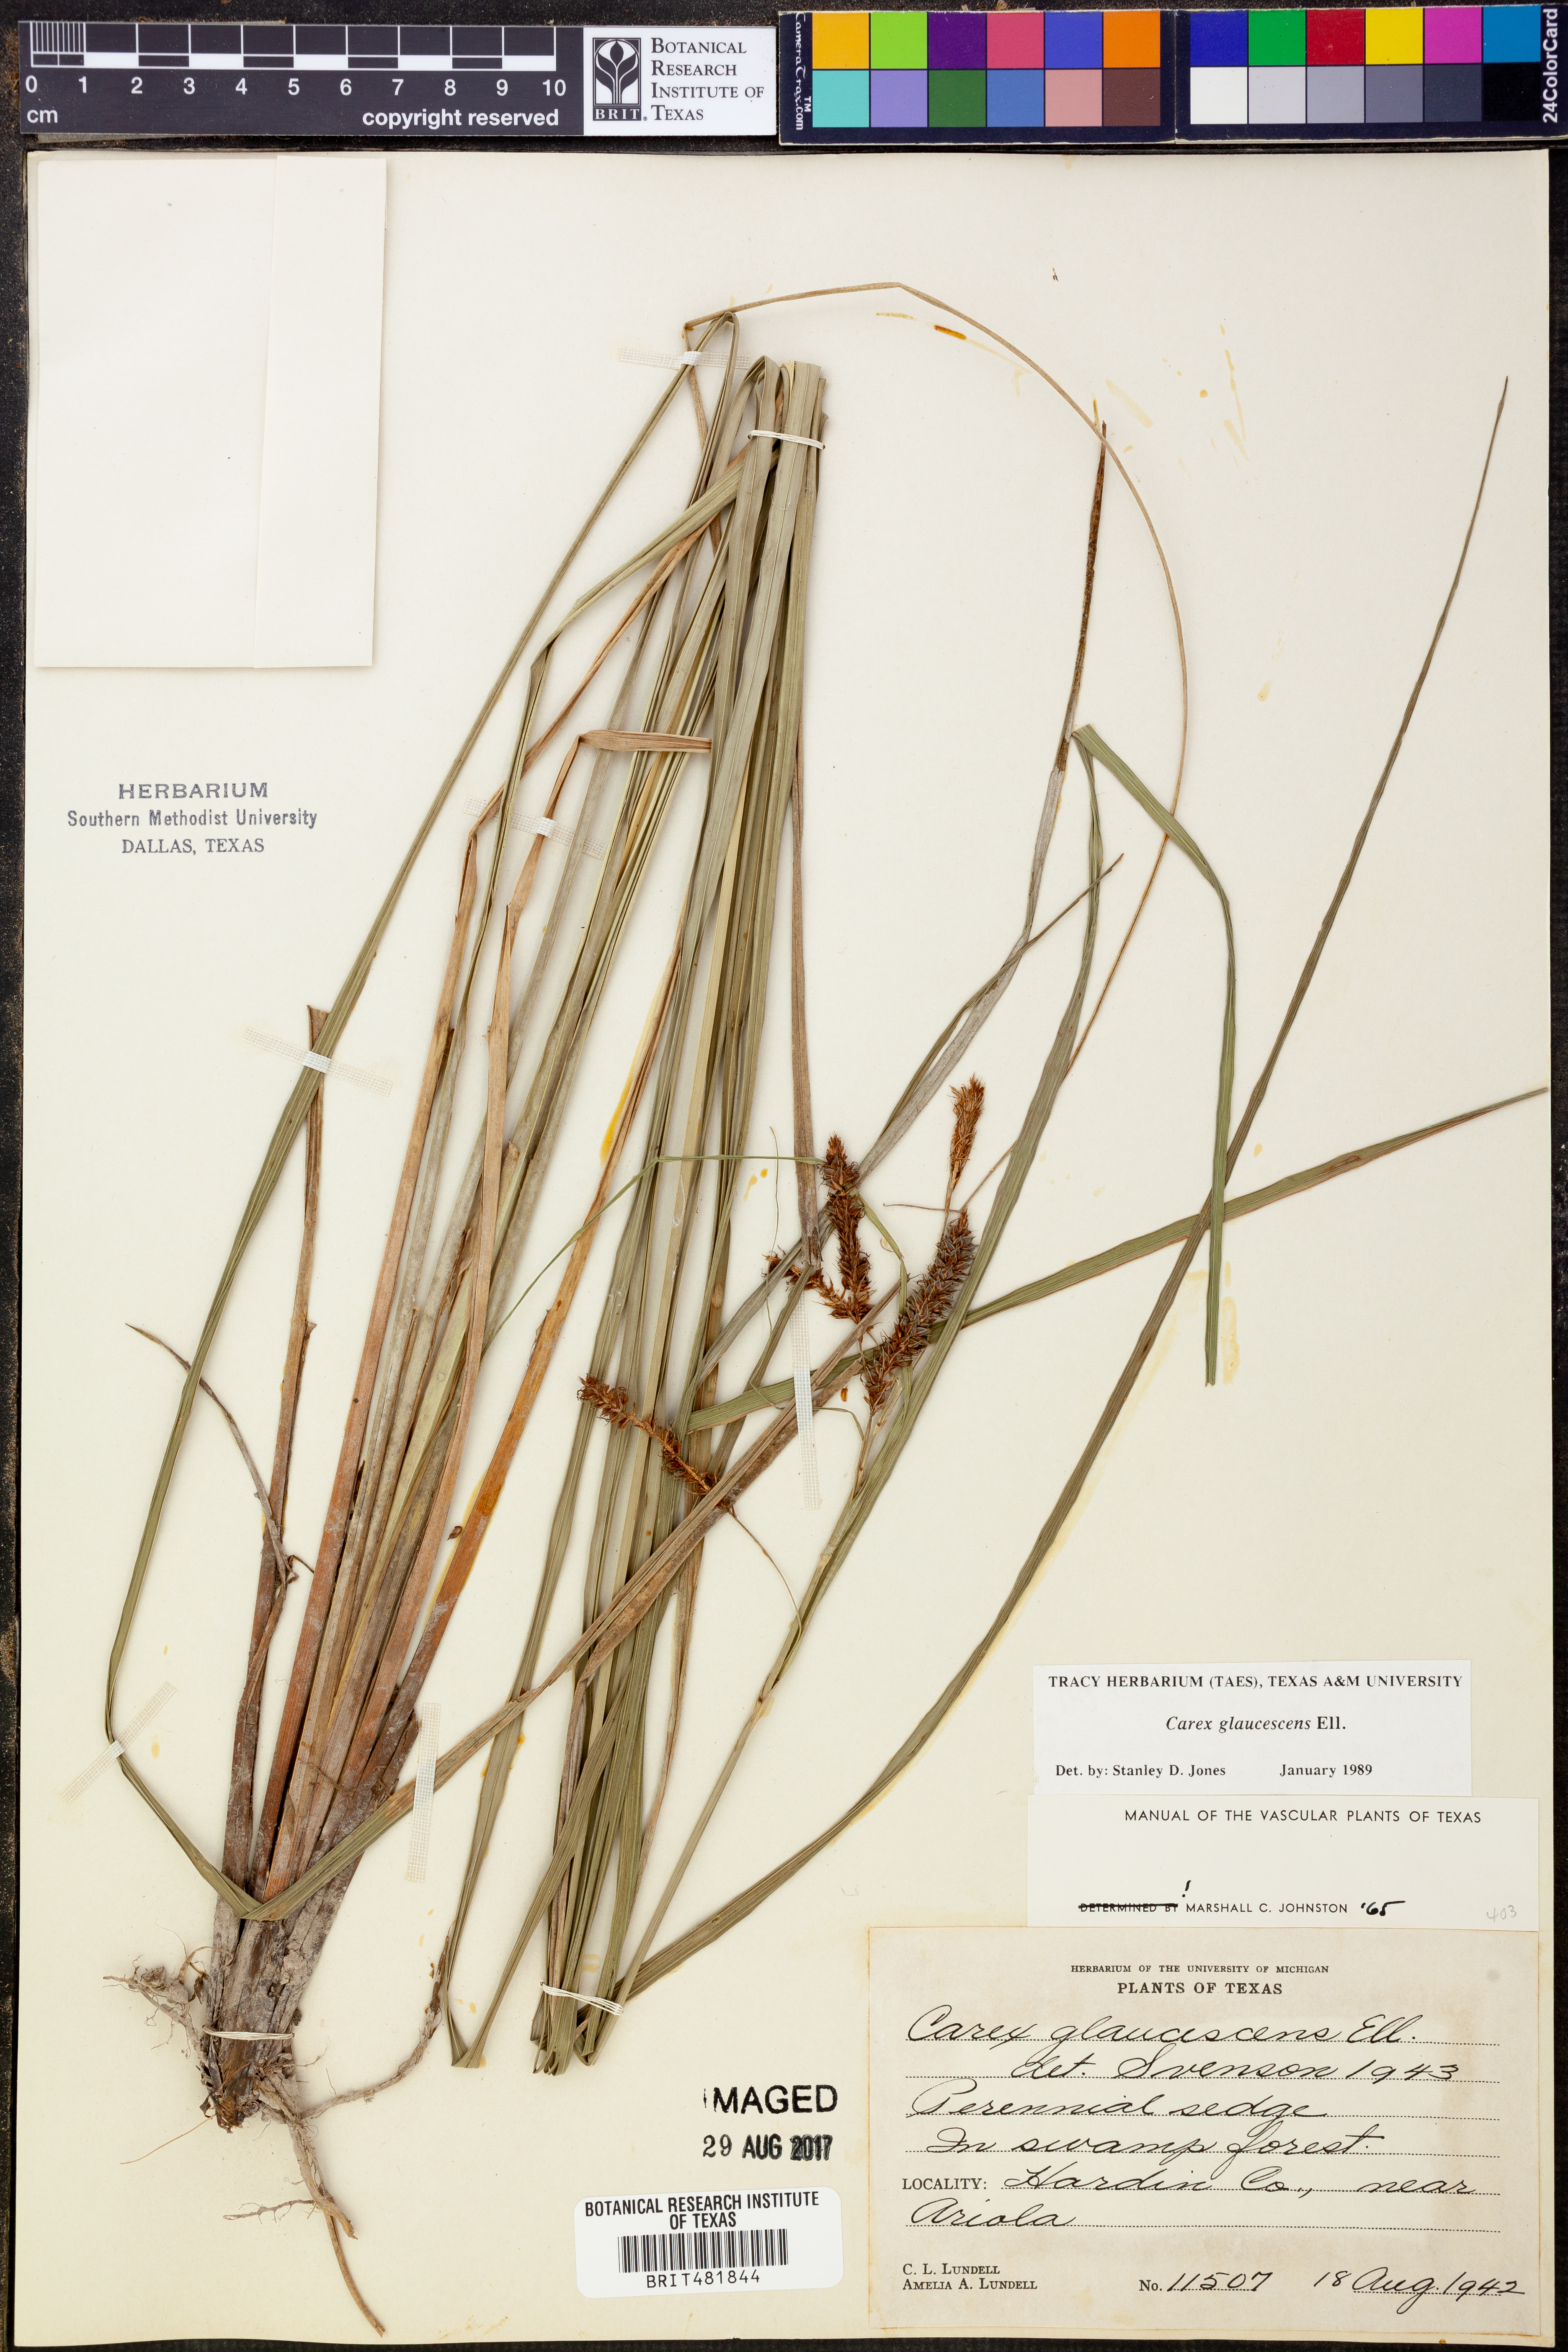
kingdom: Plantae
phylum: Tracheophyta
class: Liliopsida
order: Poales
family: Cyperaceae
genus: Carex
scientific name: Carex glaucescens
